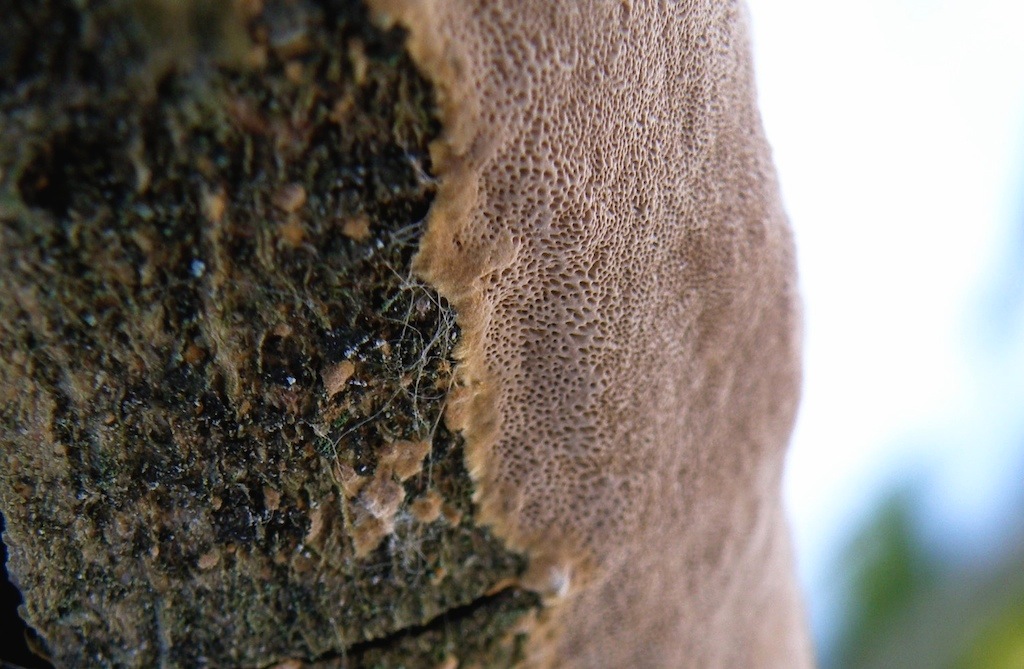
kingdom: Fungi
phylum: Basidiomycota
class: Agaricomycetes
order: Hymenochaetales
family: Hymenochaetaceae
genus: Fuscoporia
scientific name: Fuscoporia ferrea
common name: skorpe-ildporesvamp
